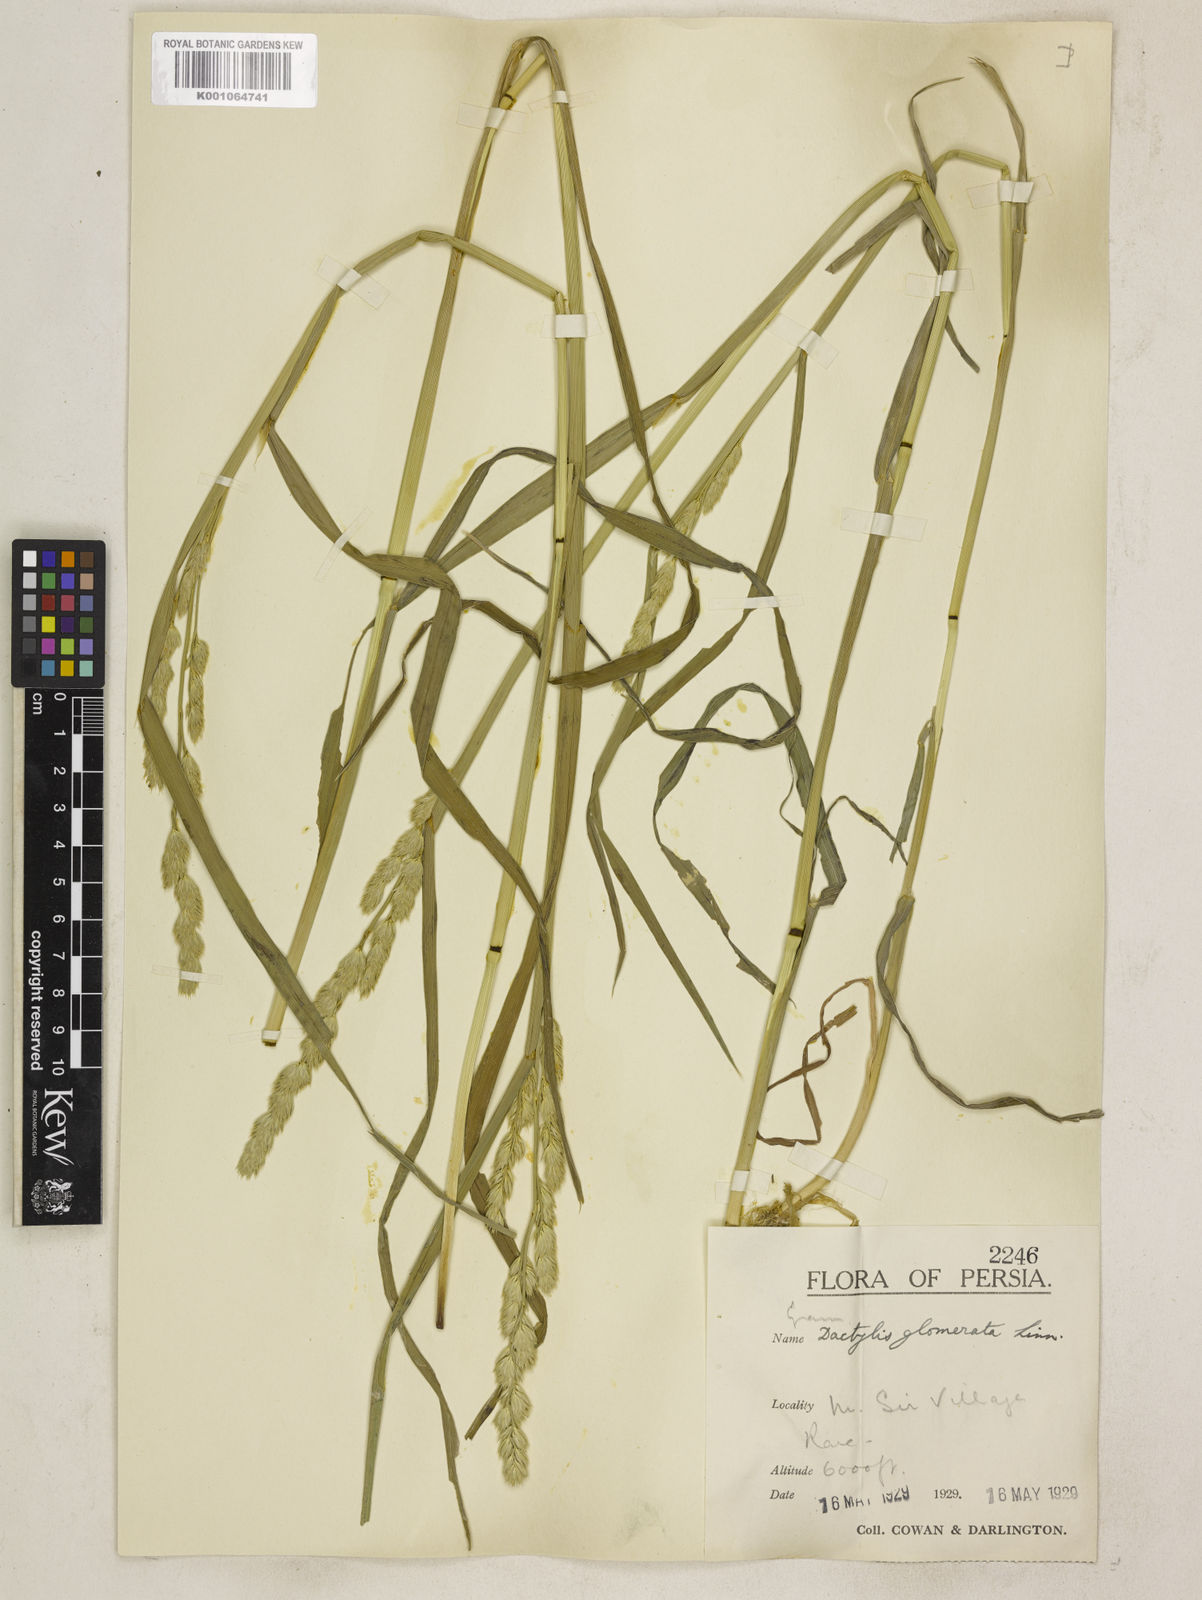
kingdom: Plantae
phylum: Tracheophyta
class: Liliopsida
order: Poales
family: Poaceae
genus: Dactylis
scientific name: Dactylis glomerata
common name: Orchardgrass
